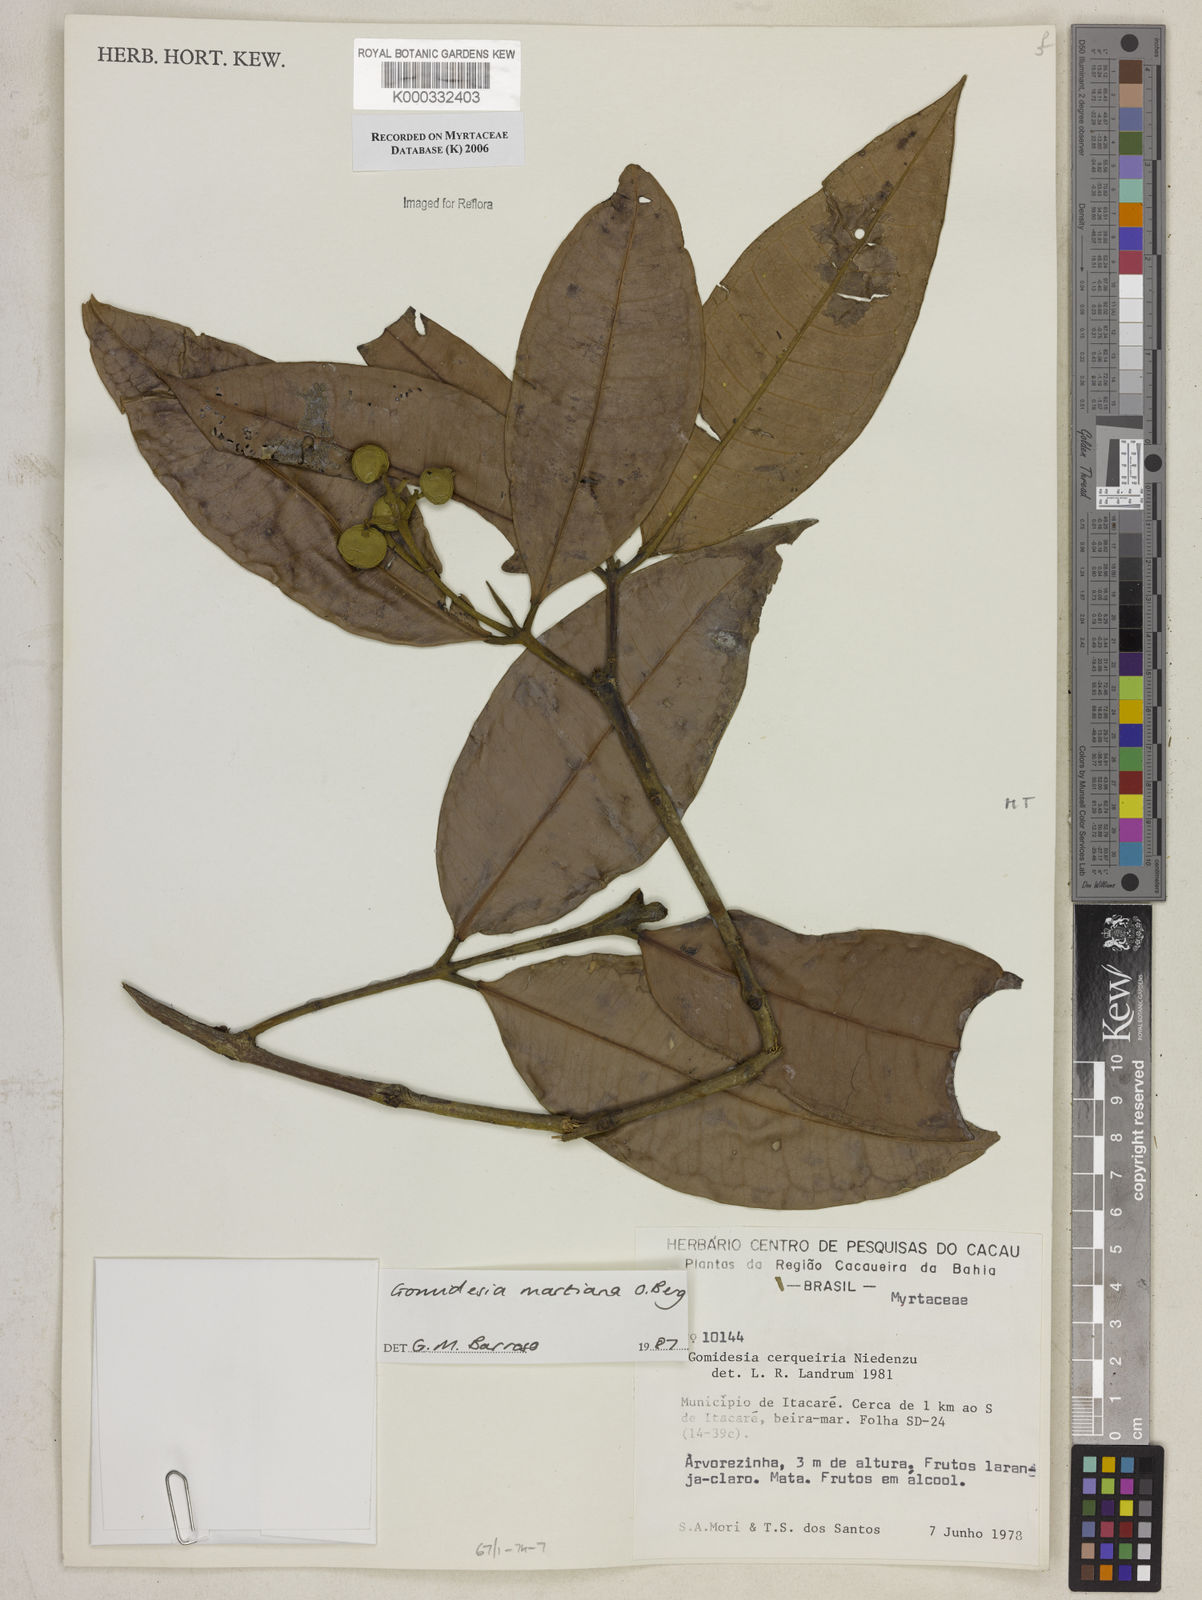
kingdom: Plantae
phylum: Tracheophyta
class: Magnoliopsida
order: Myrtales
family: Myrtaceae
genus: Myrcia
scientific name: Myrcia vittoriana
